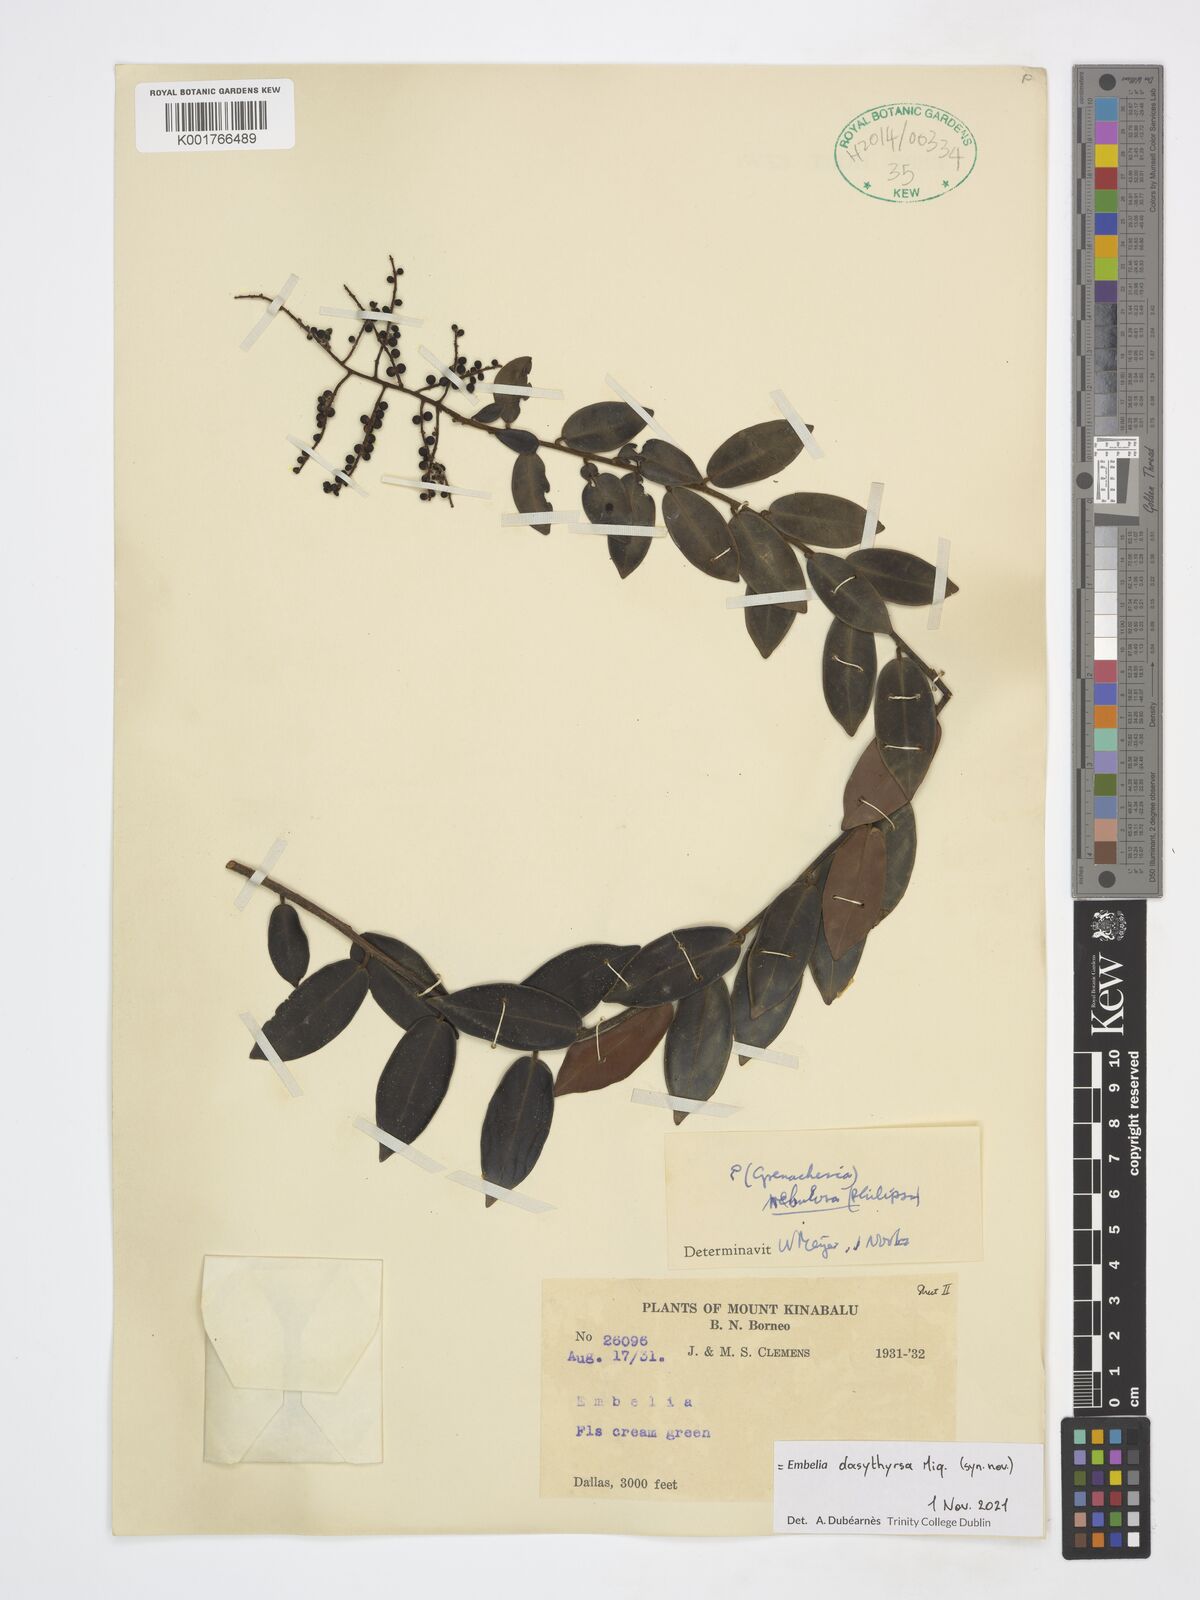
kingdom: Plantae
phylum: Tracheophyta
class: Magnoliopsida
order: Ericales
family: Primulaceae
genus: Embelia
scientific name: Embelia dasythyrsa
